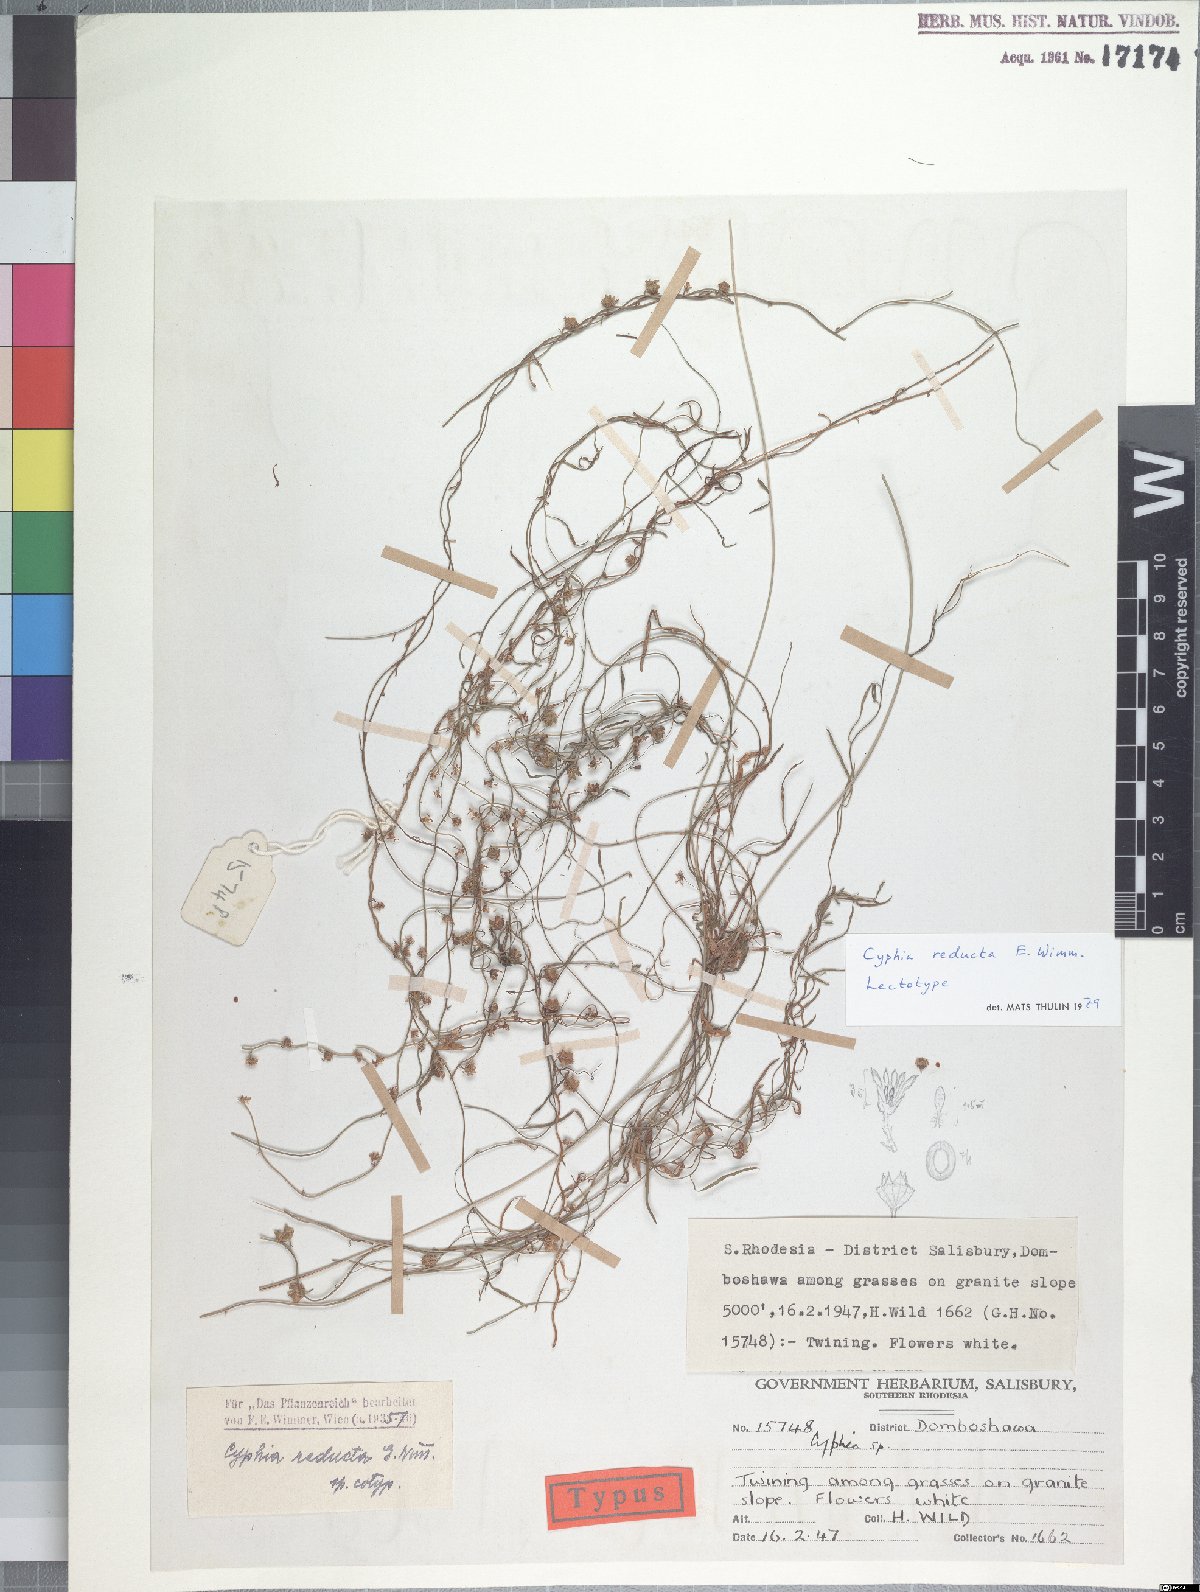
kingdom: Plantae
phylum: Tracheophyta
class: Magnoliopsida
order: Asterales
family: Campanulaceae
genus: Cyphia
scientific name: Cyphia reducta
